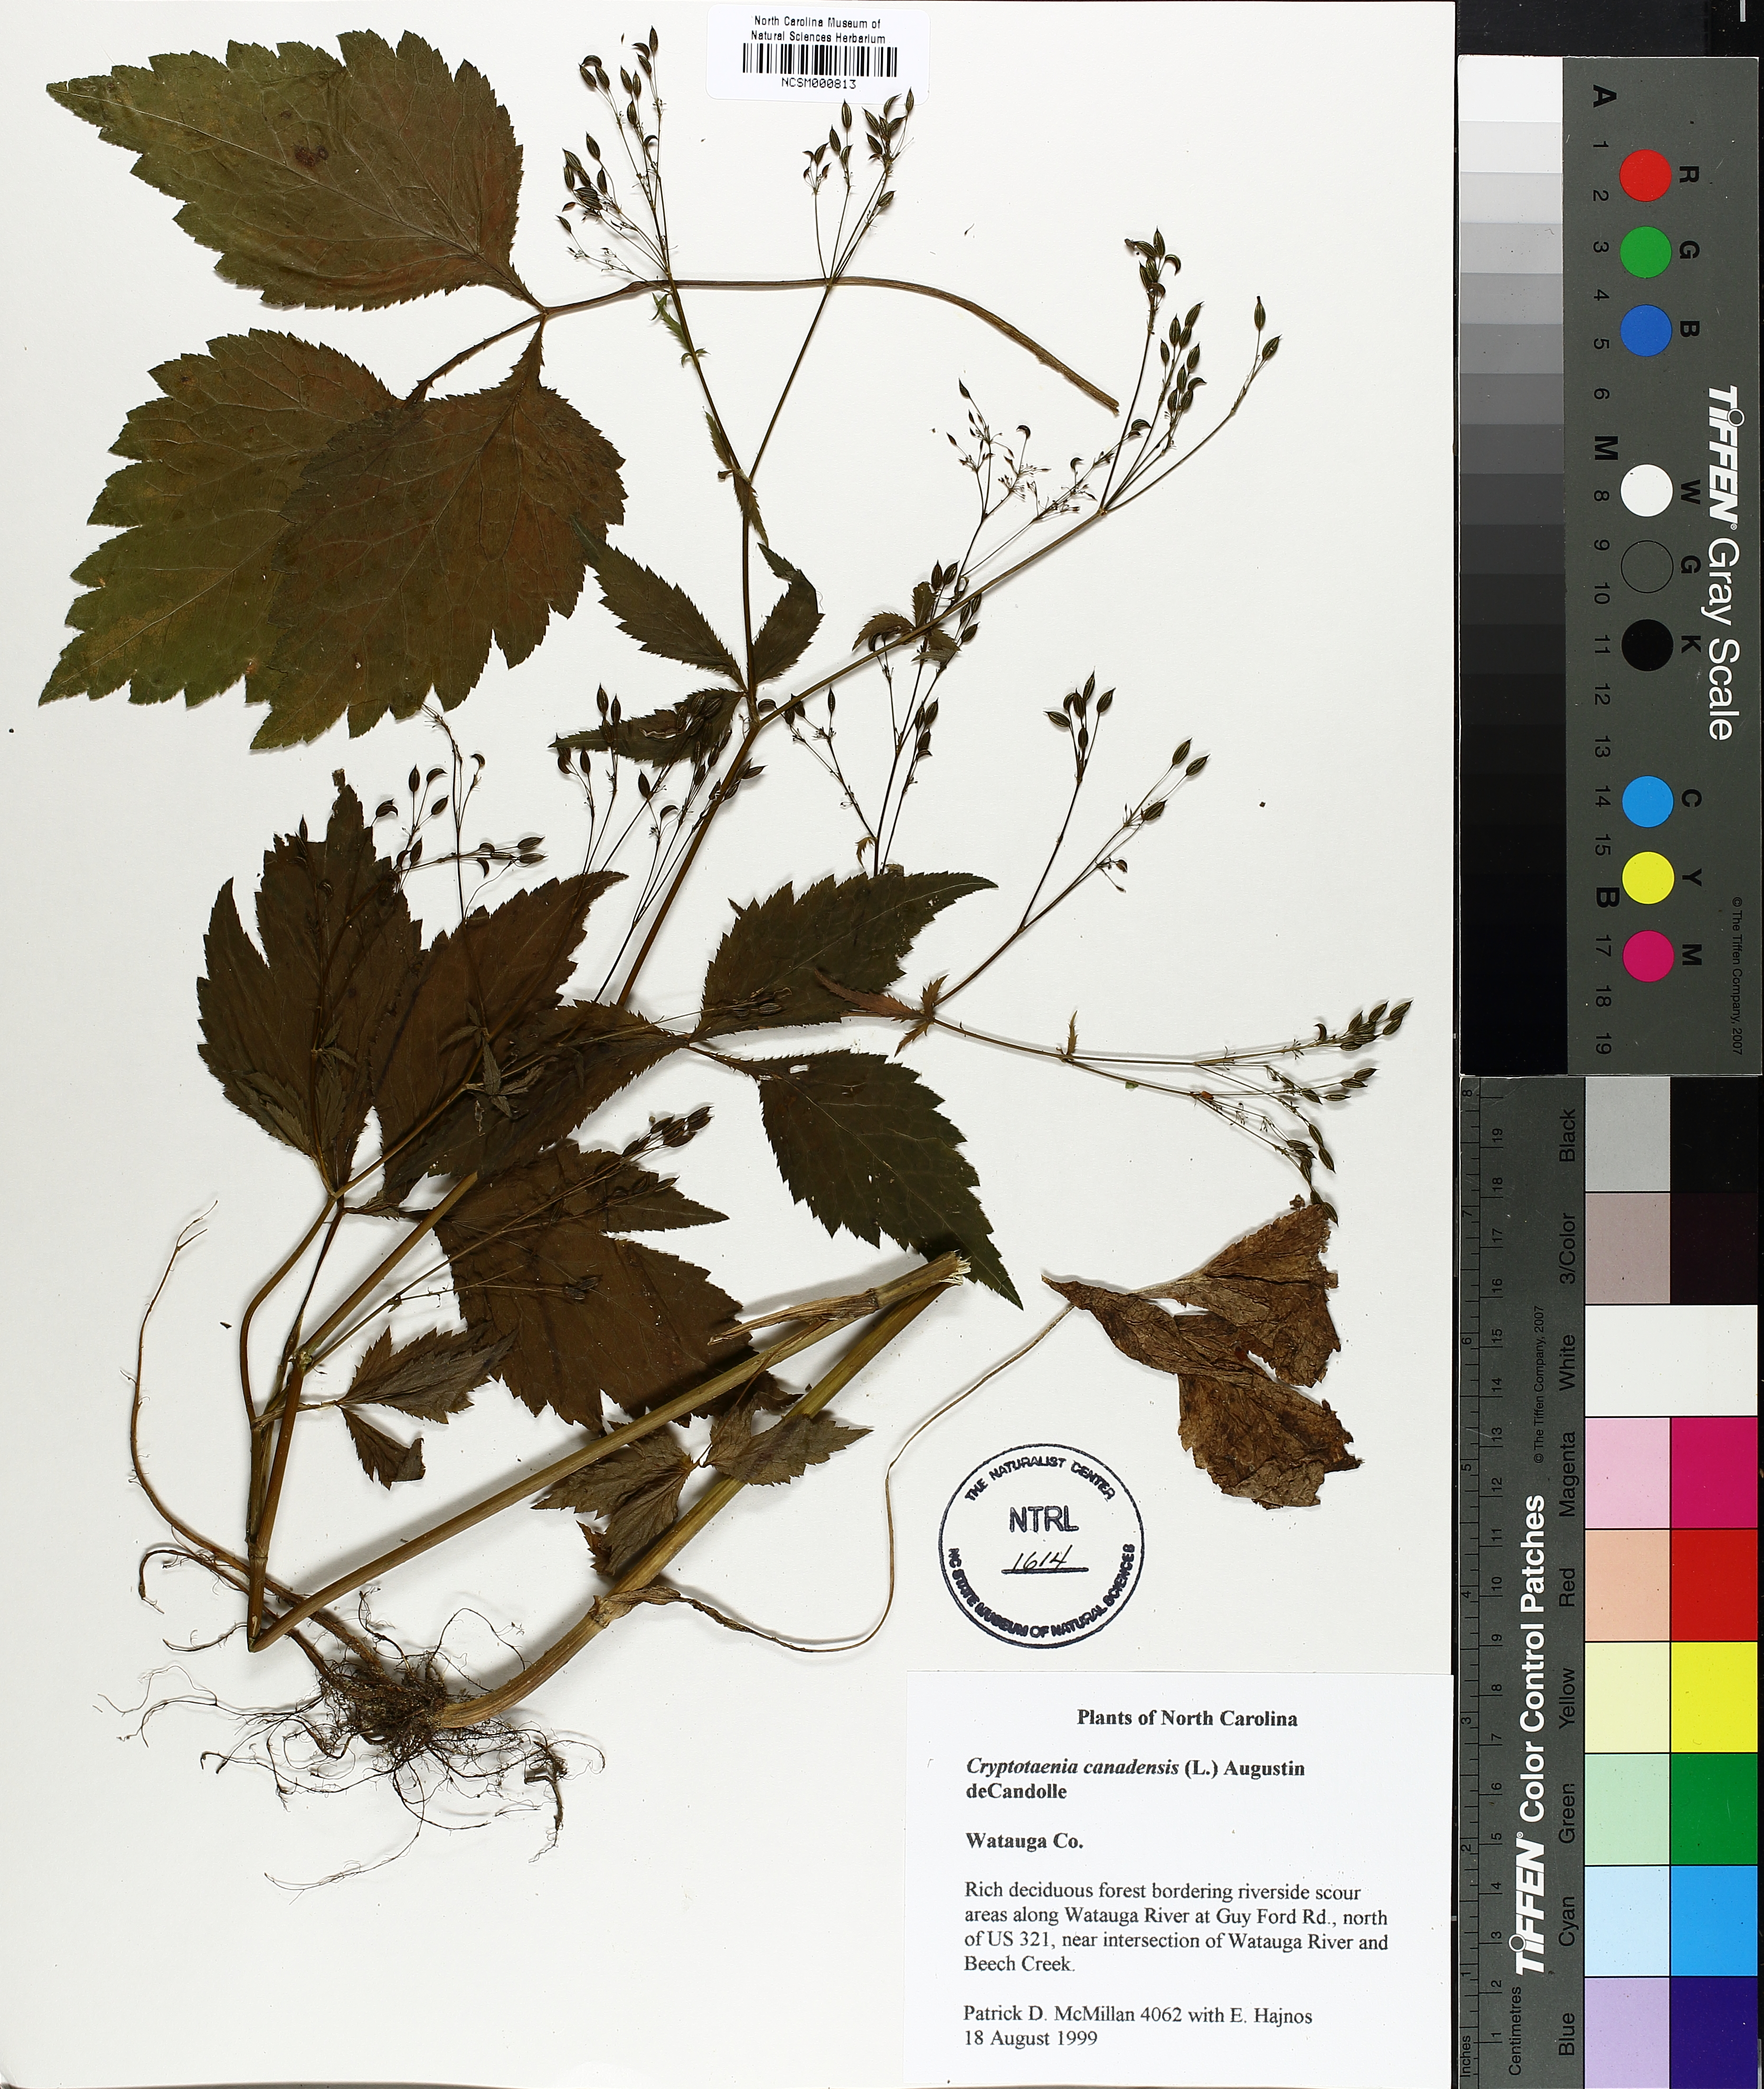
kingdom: Plantae
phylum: Tracheophyta
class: Magnoliopsida
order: Apiales
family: Apiaceae
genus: Cryptotaenia
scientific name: Cryptotaenia canadensis
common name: Honewort
